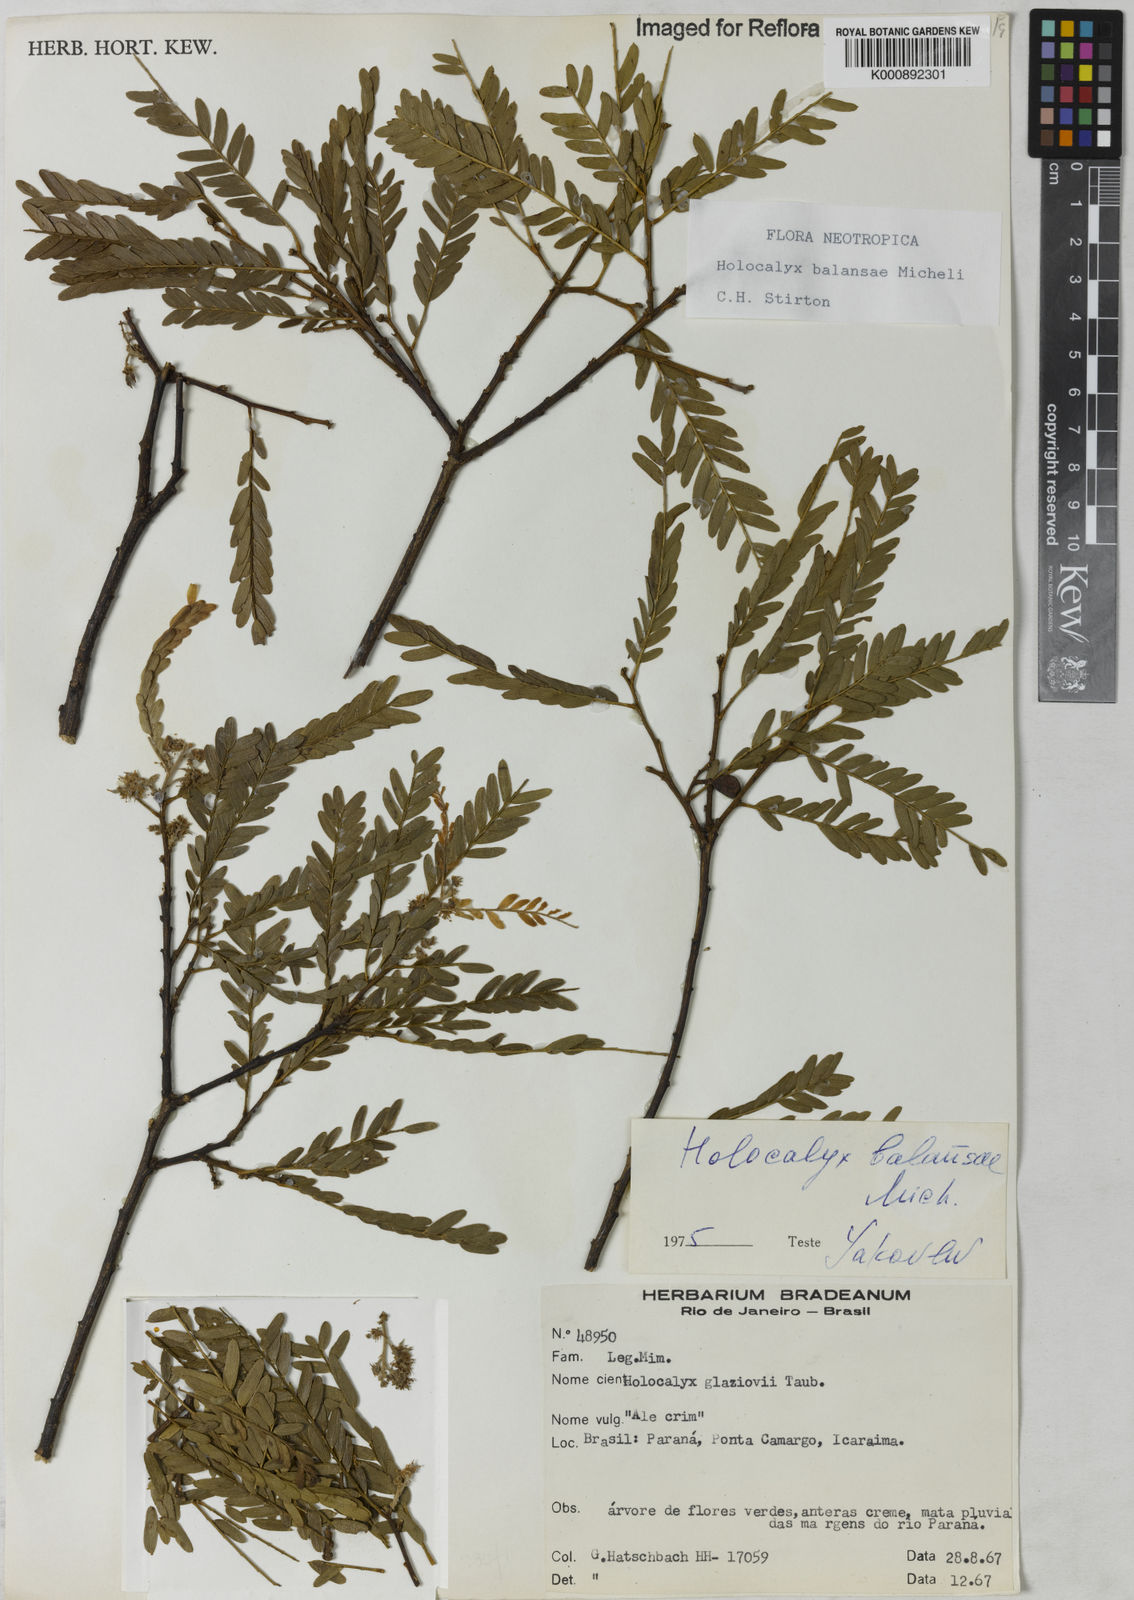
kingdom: Plantae
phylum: Tracheophyta
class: Magnoliopsida
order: Fabales
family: Fabaceae
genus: Holocalyx
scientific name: Holocalyx
